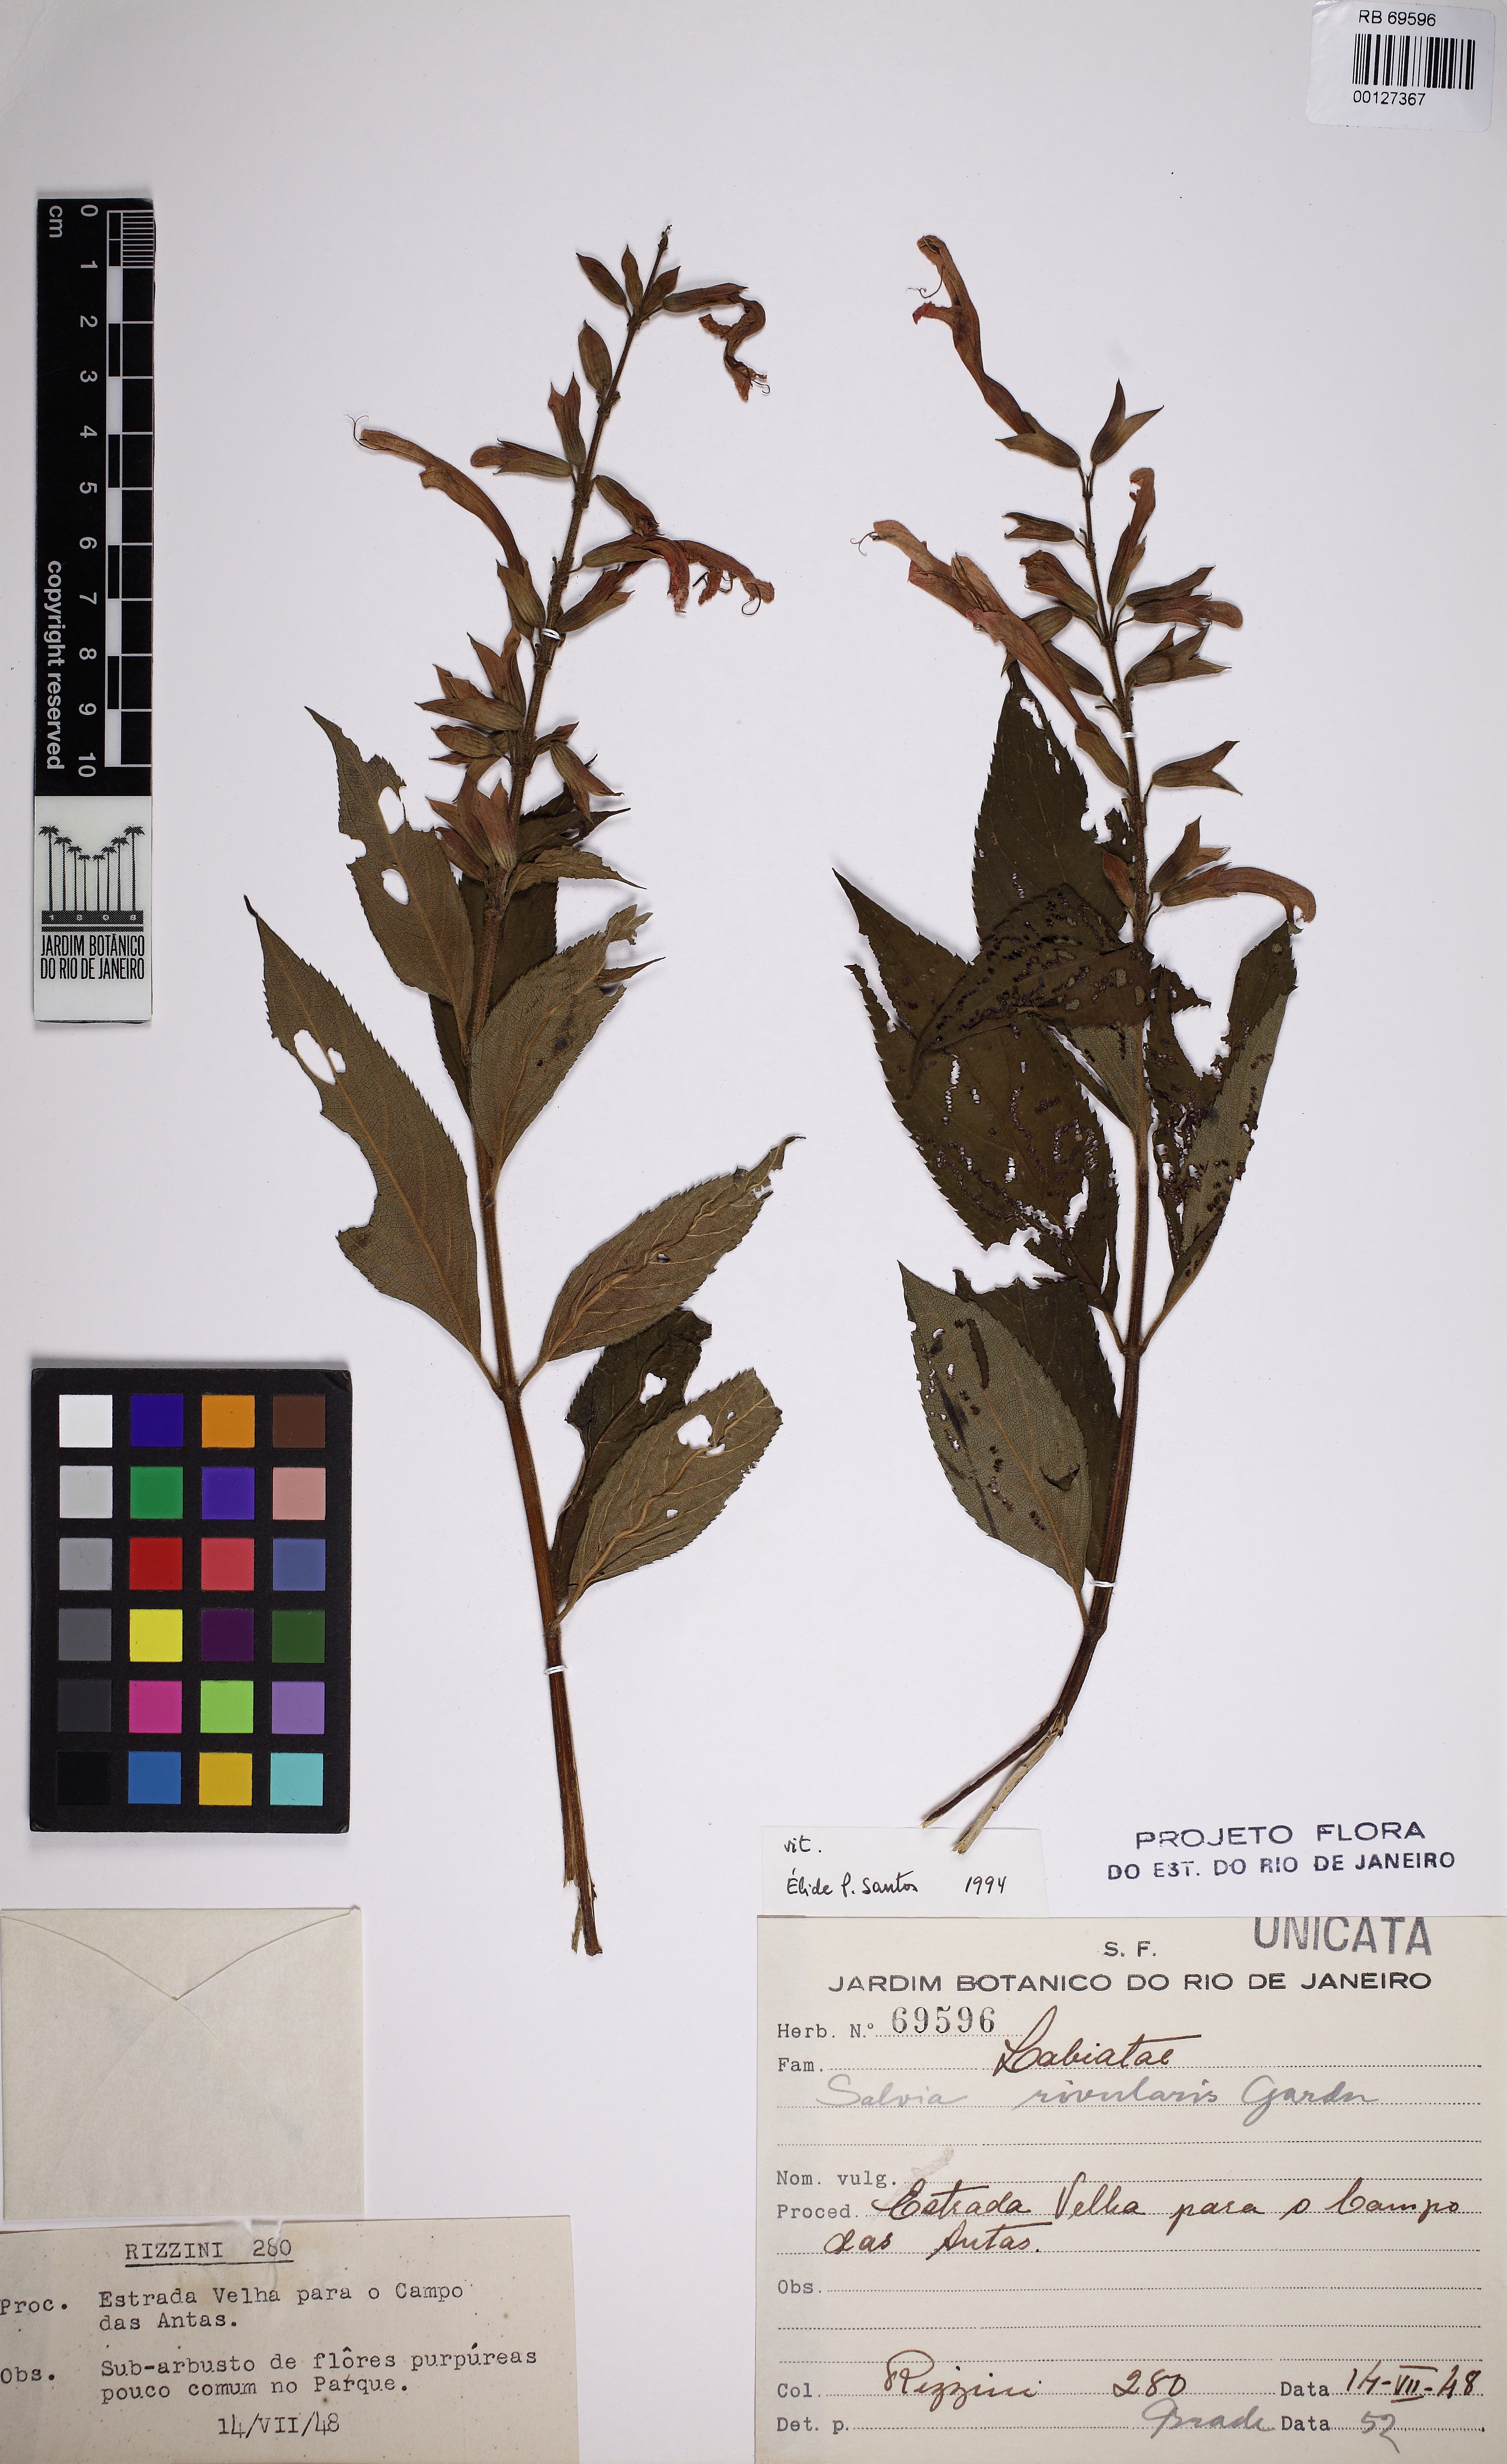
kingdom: Plantae
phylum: Tracheophyta
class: Magnoliopsida
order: Lamiales
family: Lamiaceae
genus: Salvia
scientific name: Salvia rivularis
